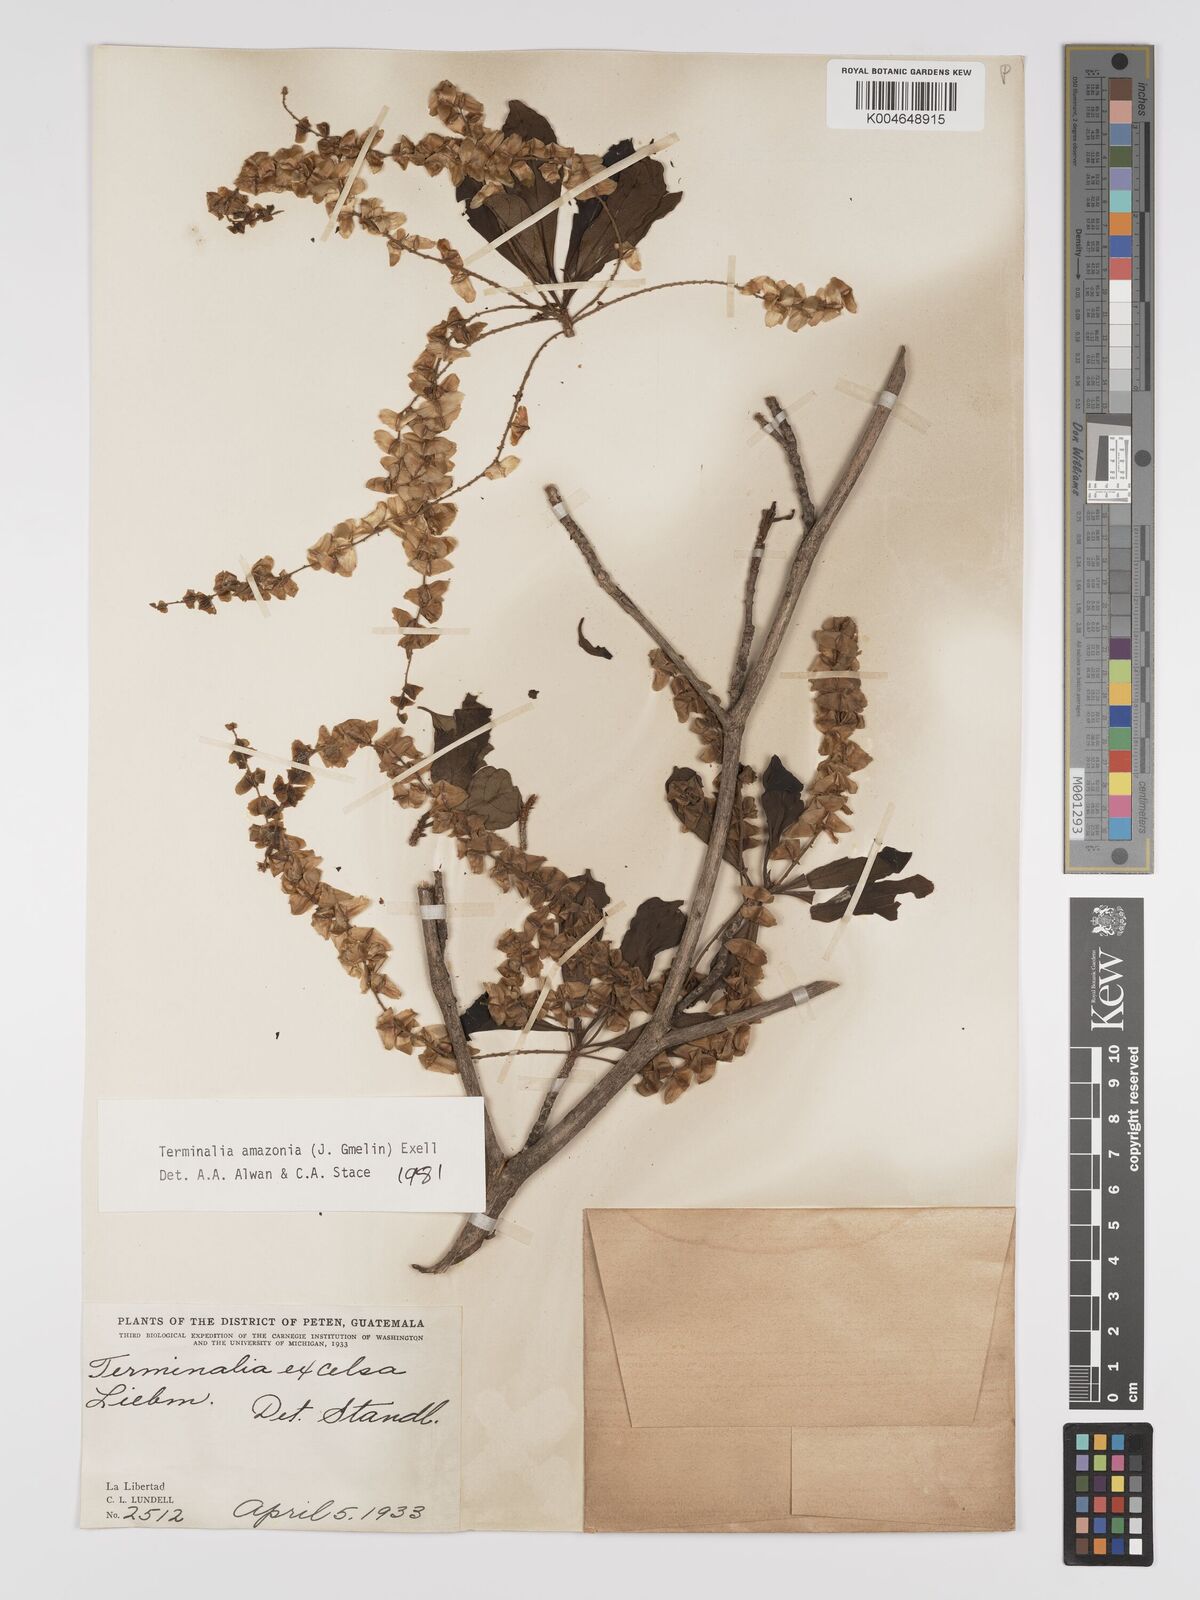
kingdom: Plantae
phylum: Tracheophyta
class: Magnoliopsida
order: Myrtales
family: Combretaceae
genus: Terminalia
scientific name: Terminalia amazonica
